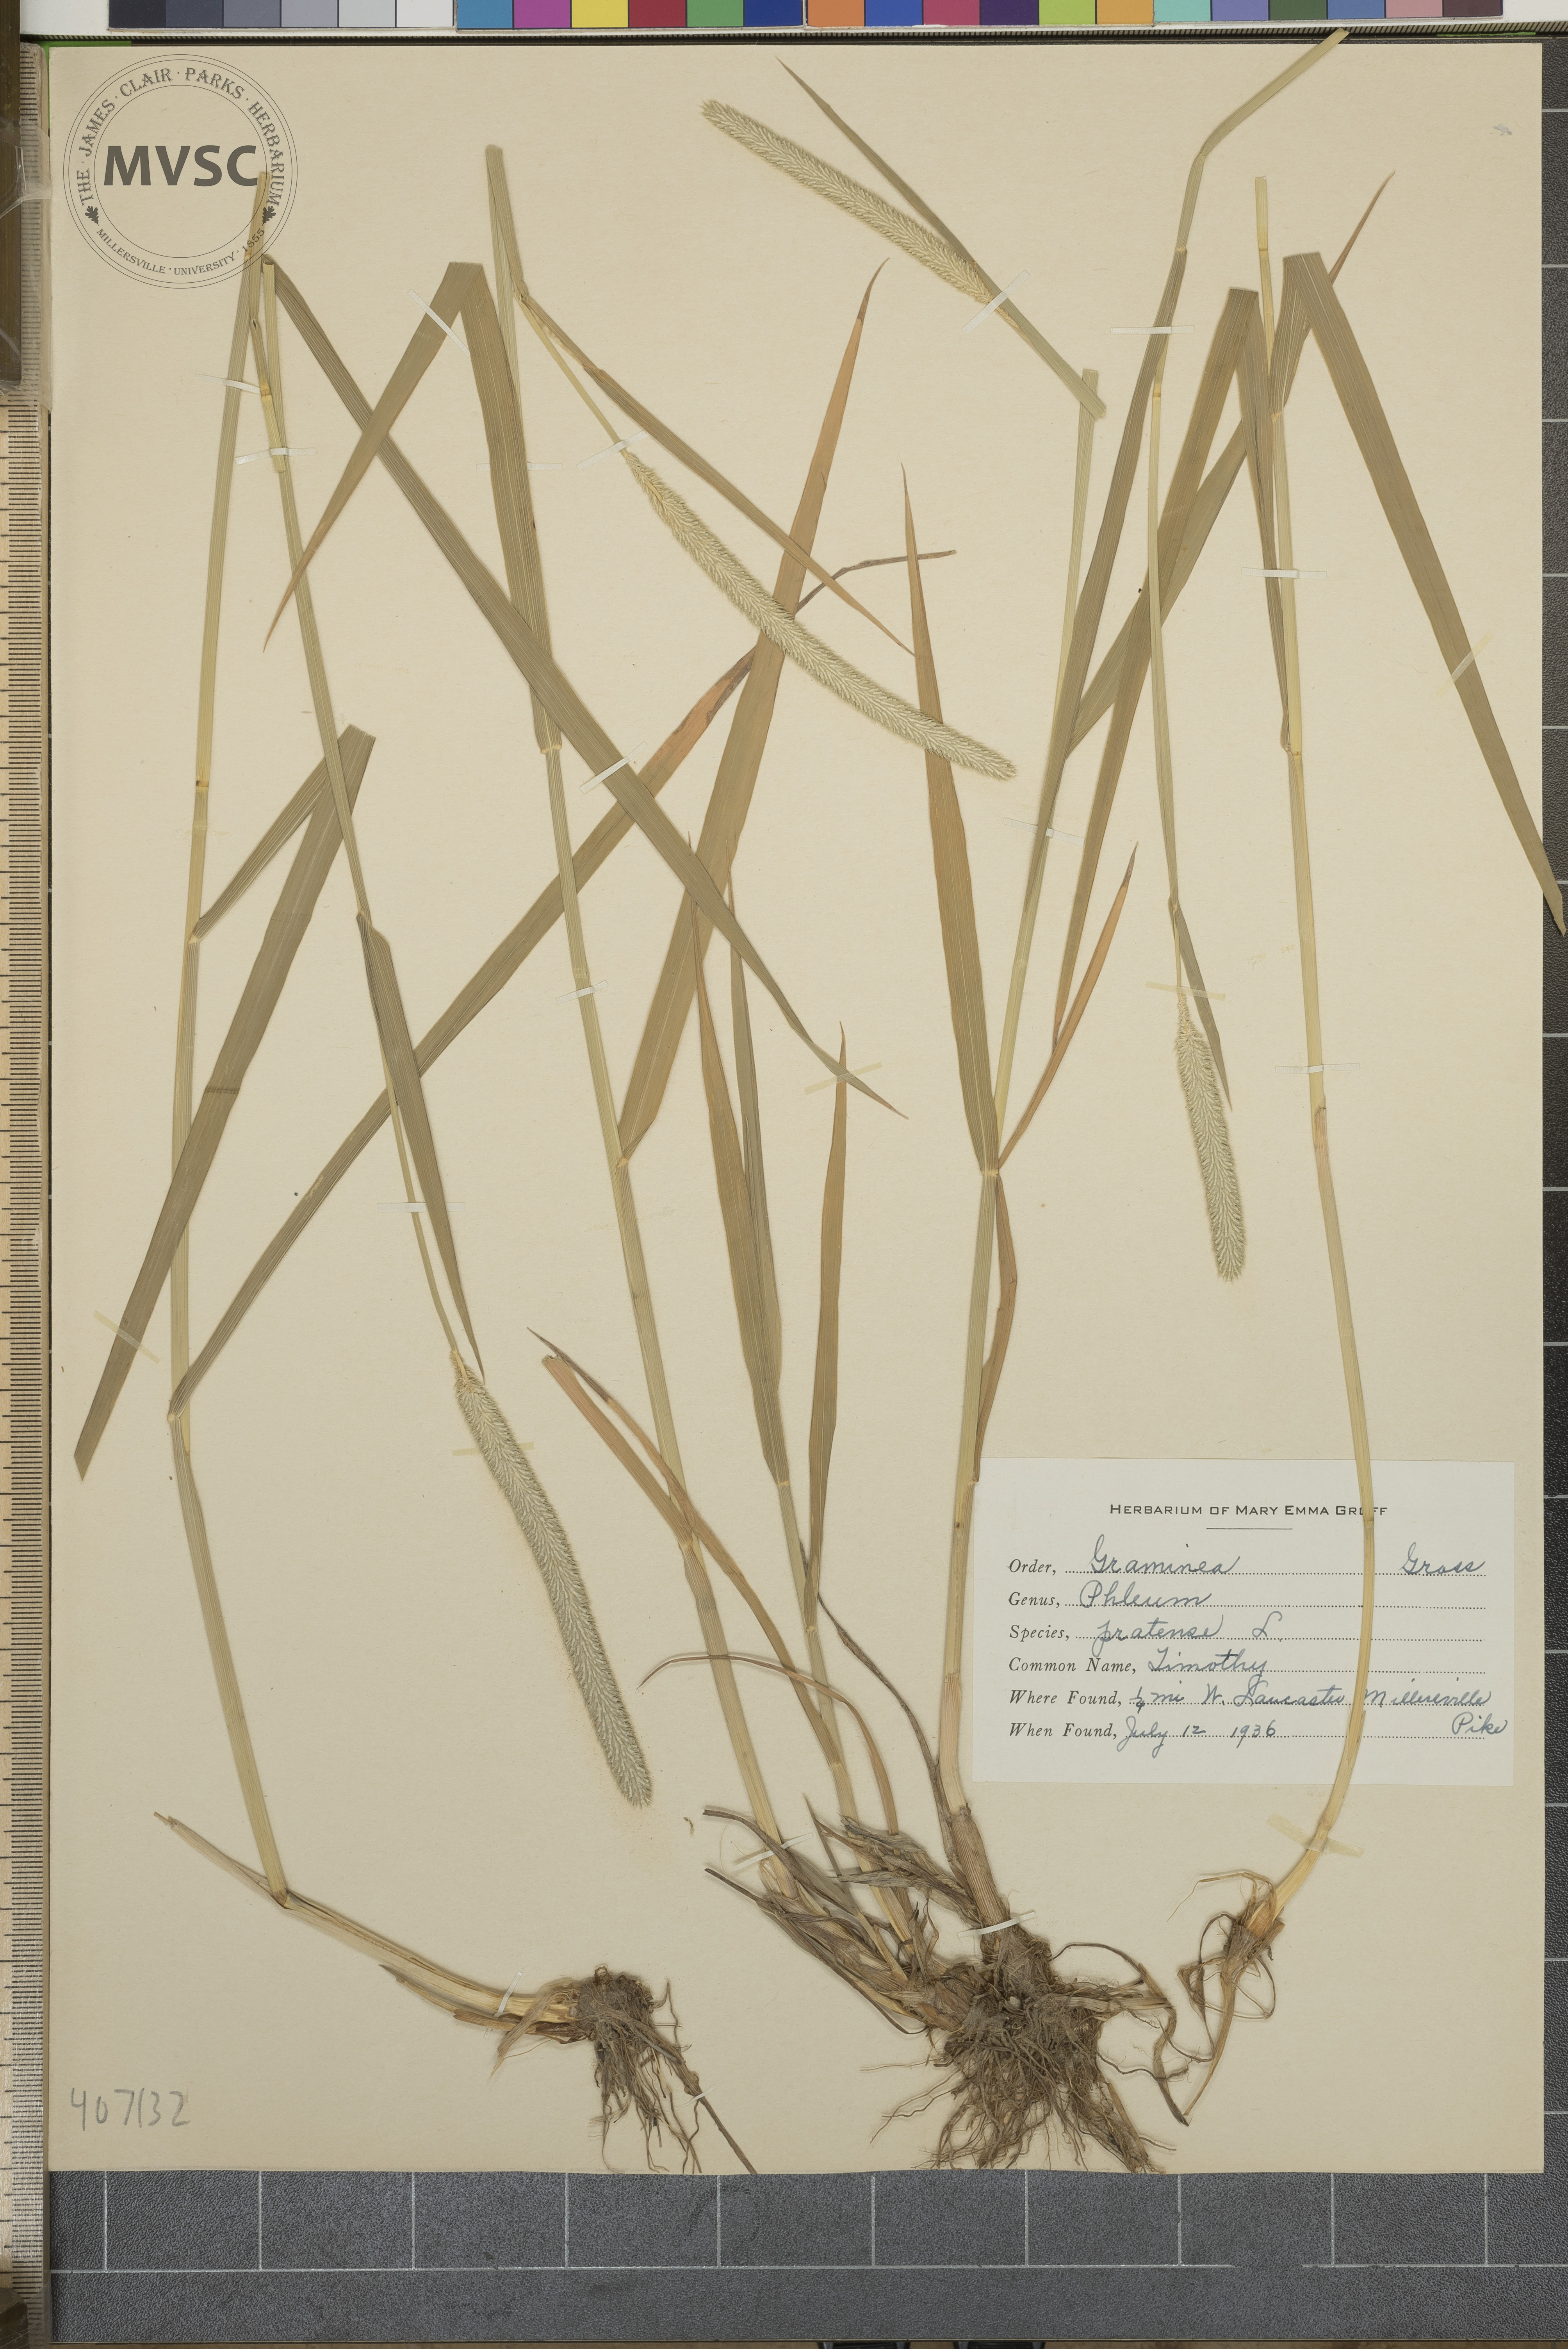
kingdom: Plantae
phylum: Tracheophyta
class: Liliopsida
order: Poales
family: Poaceae
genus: Phleum
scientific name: Phleum pratense
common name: Timothy
